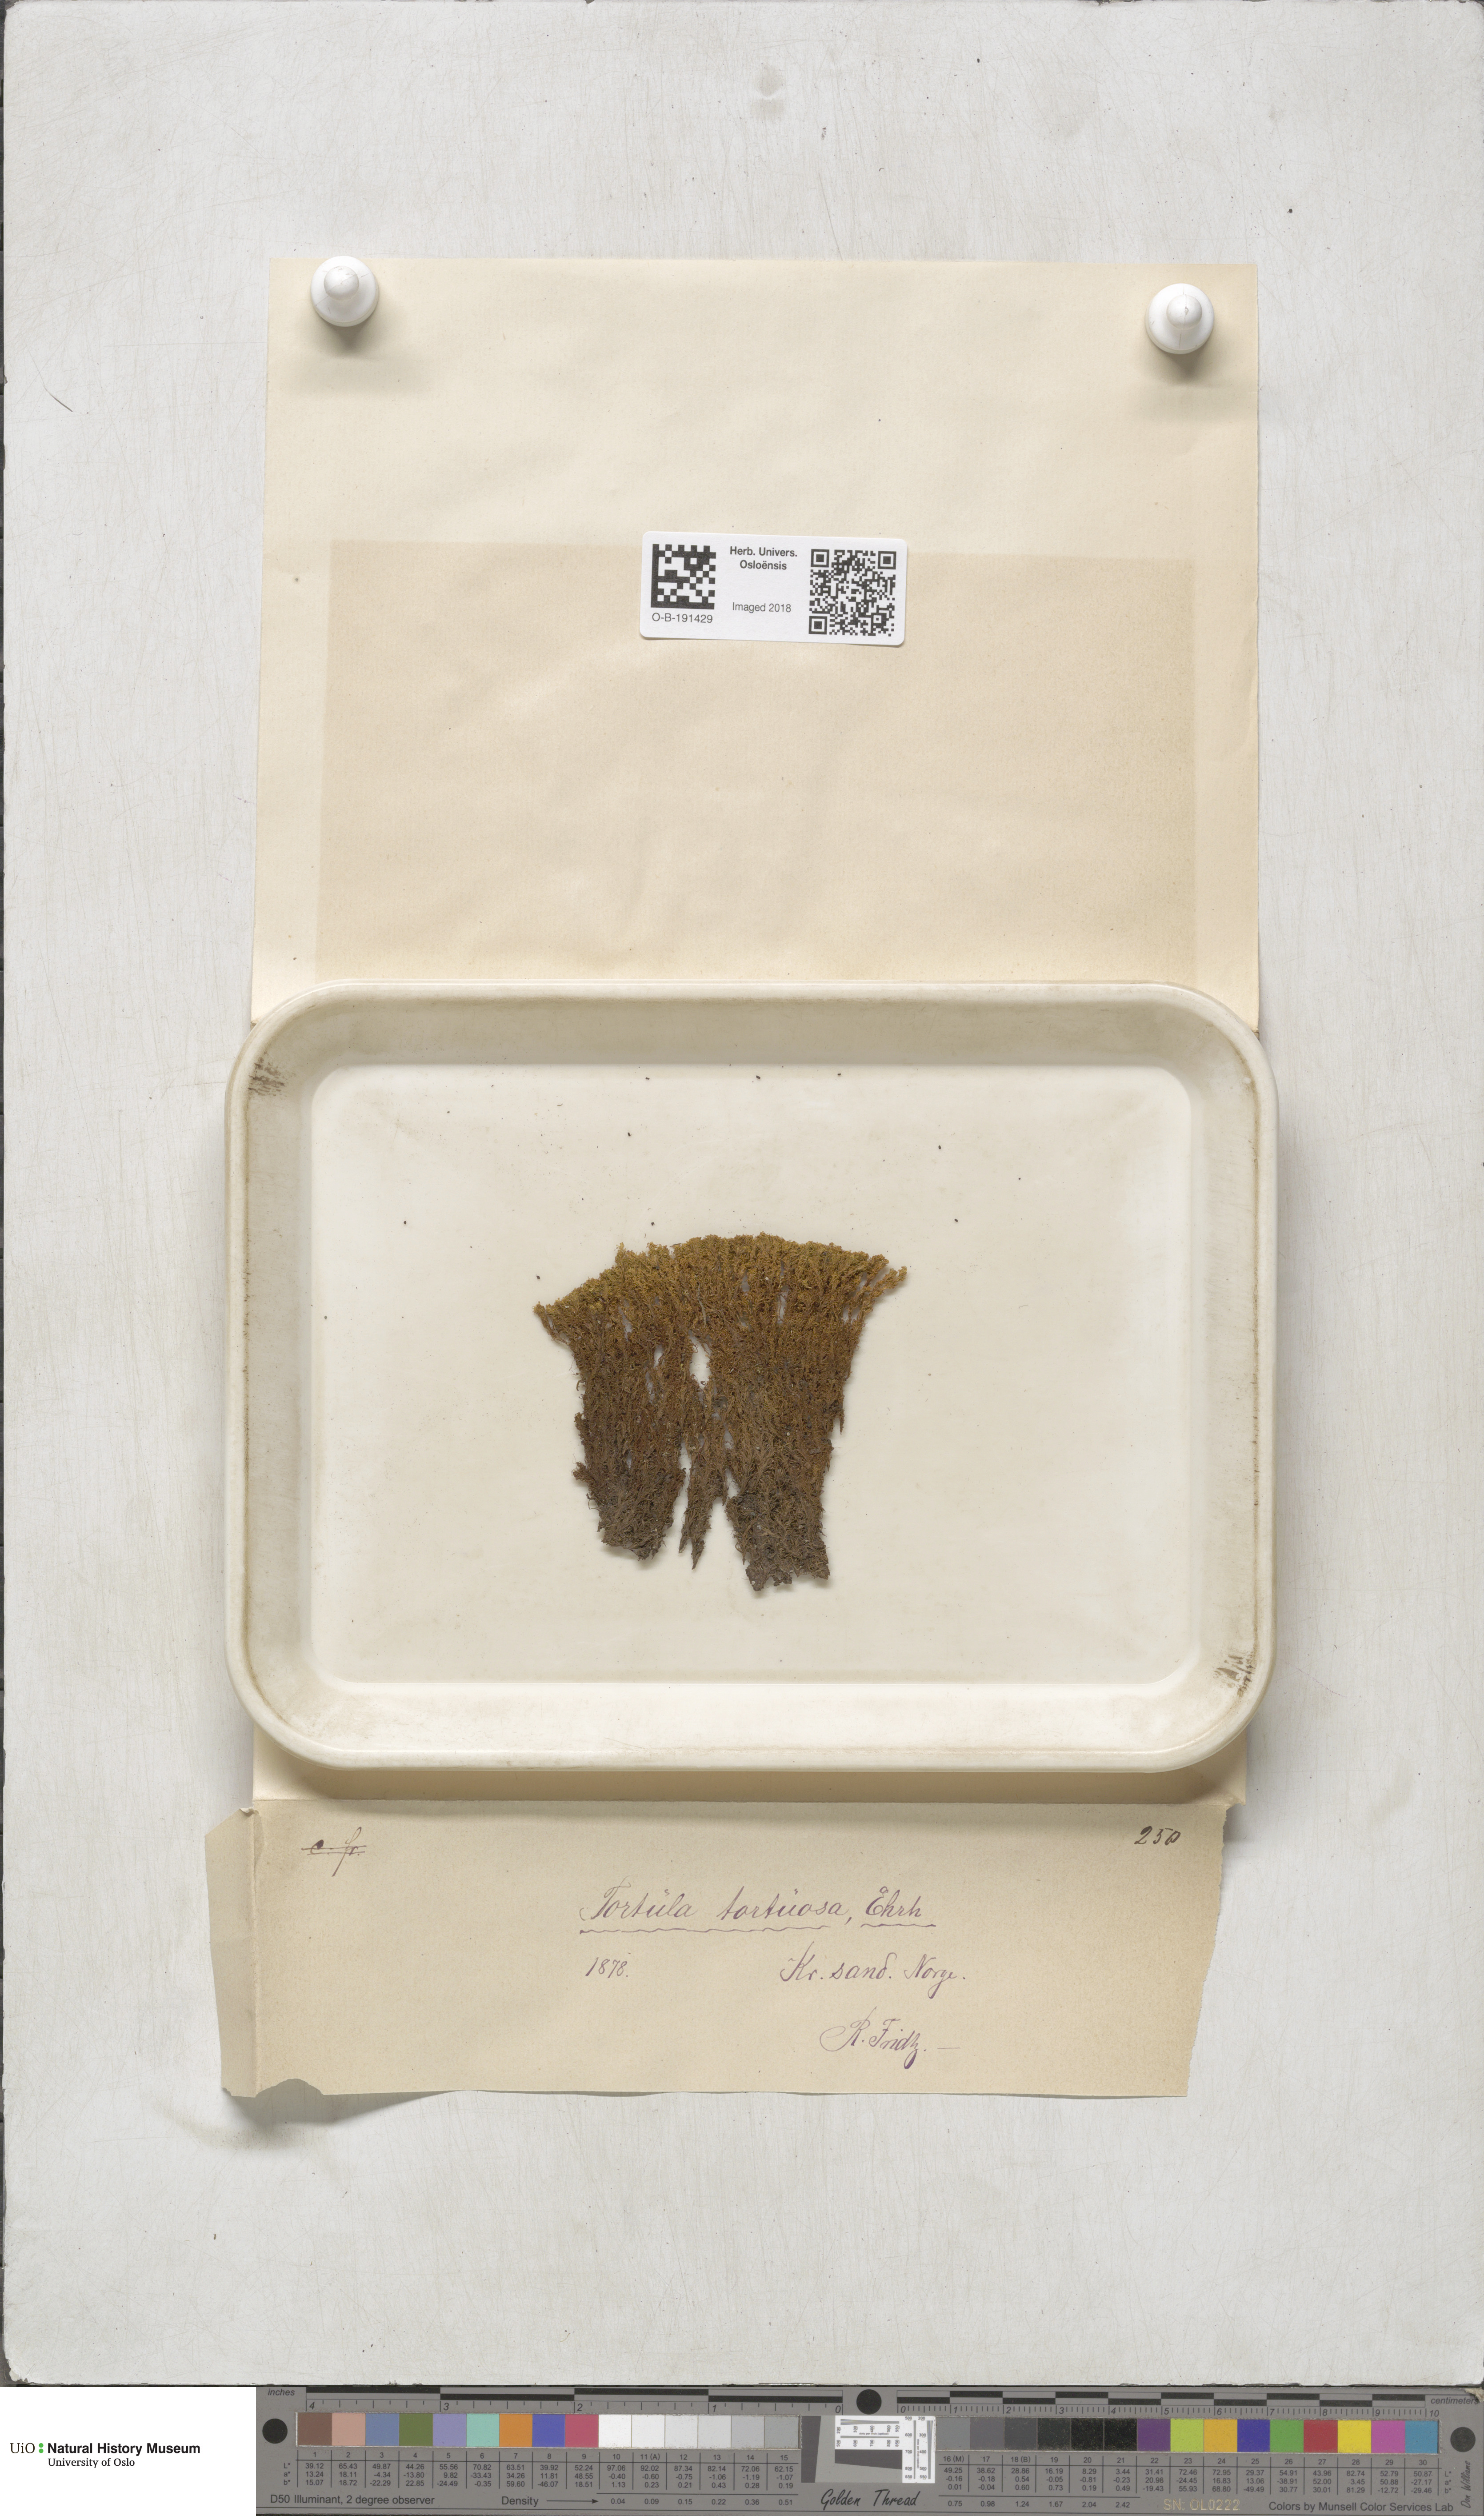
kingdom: Plantae
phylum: Bryophyta
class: Bryopsida
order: Pottiales
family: Pottiaceae
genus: Tortella
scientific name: Tortella tortuosa
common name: Frizzled crisp moss
